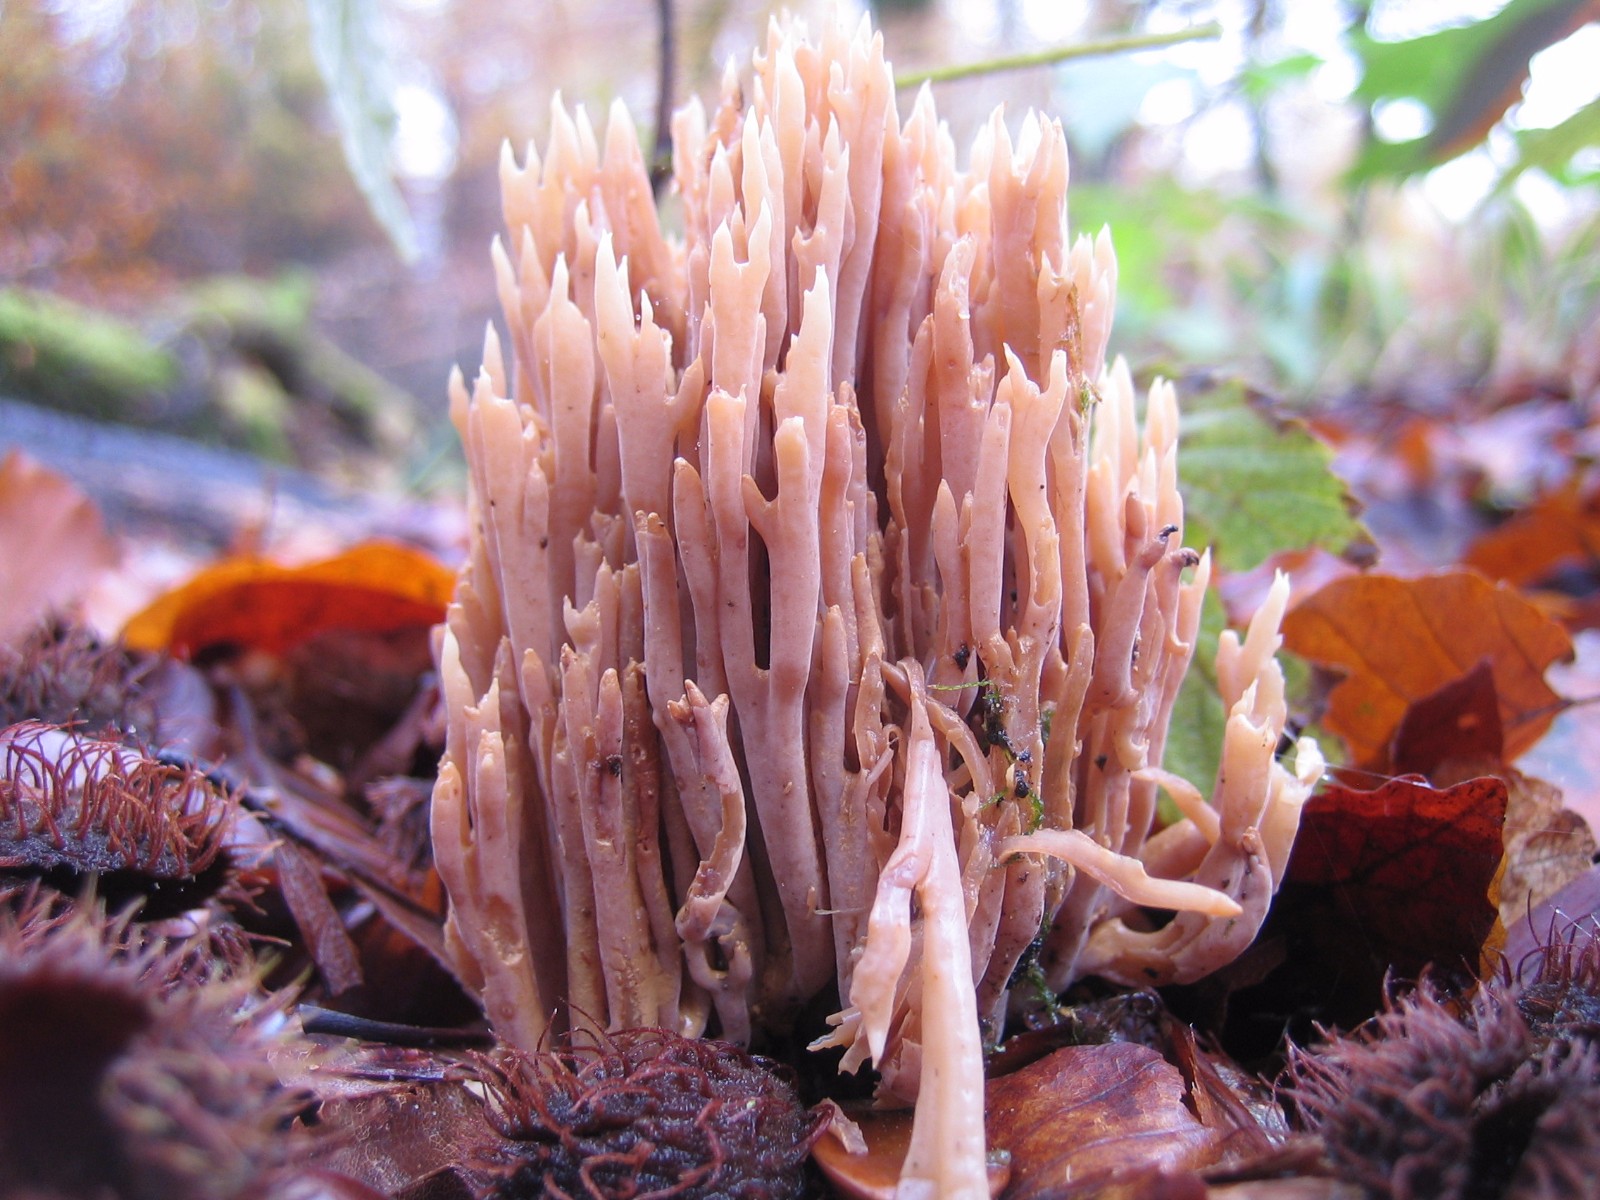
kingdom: Fungi
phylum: Basidiomycota
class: Agaricomycetes
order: Gomphales
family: Gomphaceae
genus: Ramaria
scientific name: Ramaria stricta
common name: rank koralsvamp
